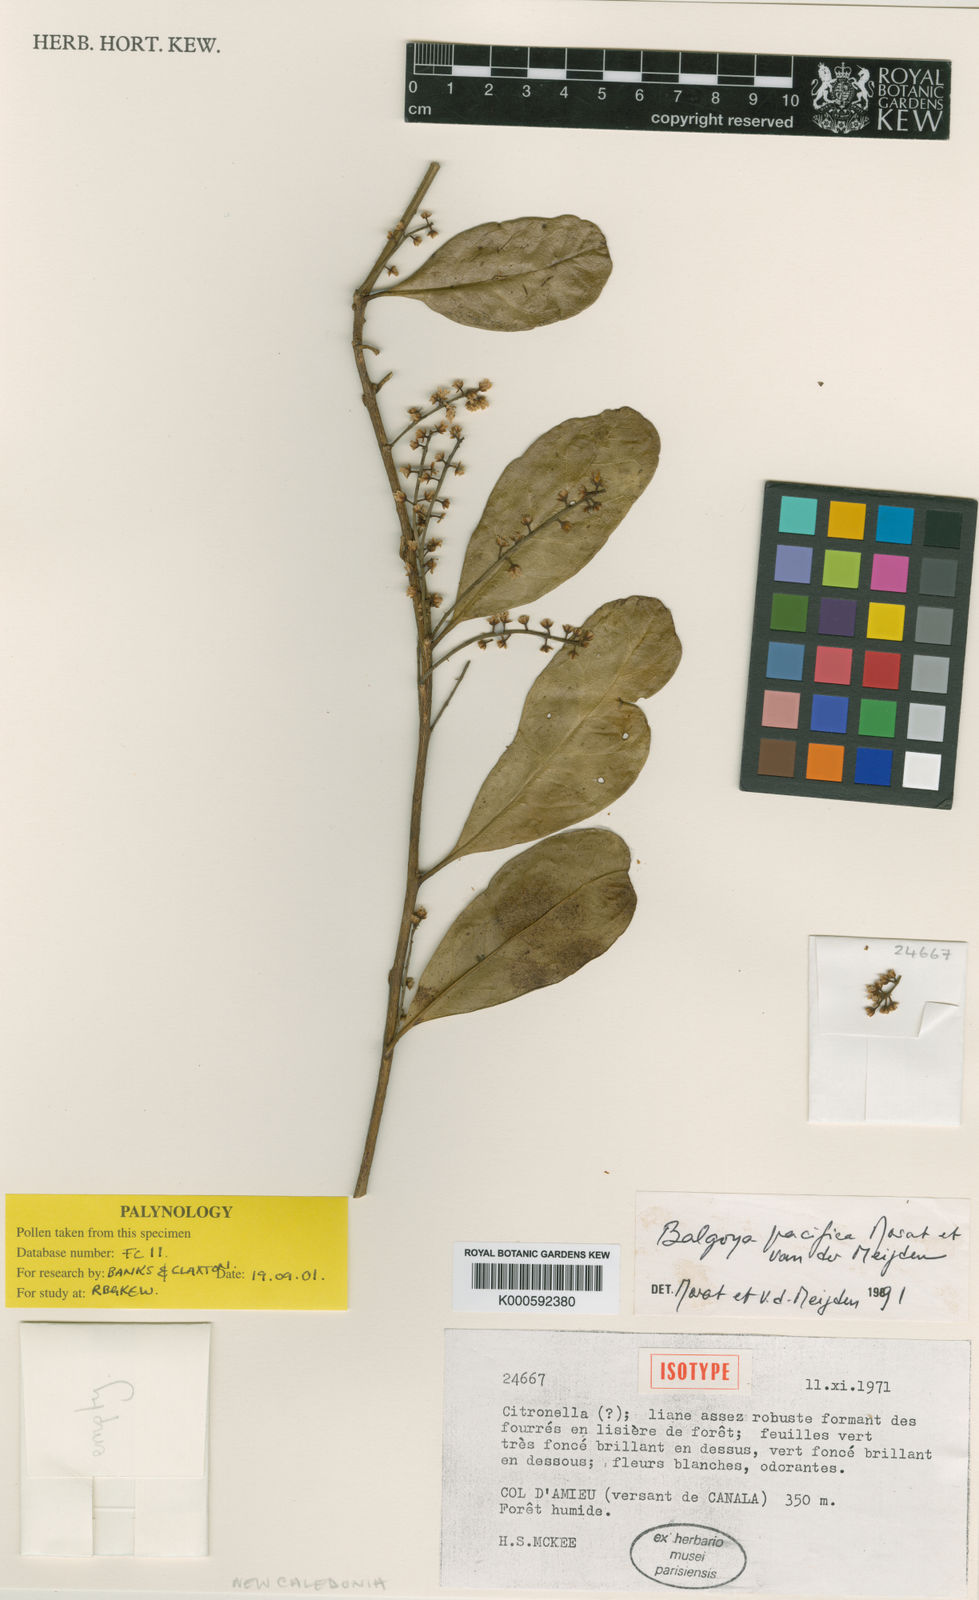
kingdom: Plantae
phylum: Tracheophyta
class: Magnoliopsida
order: Fabales
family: Polygalaceae
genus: Moutabea
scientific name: Moutabea pacifica
